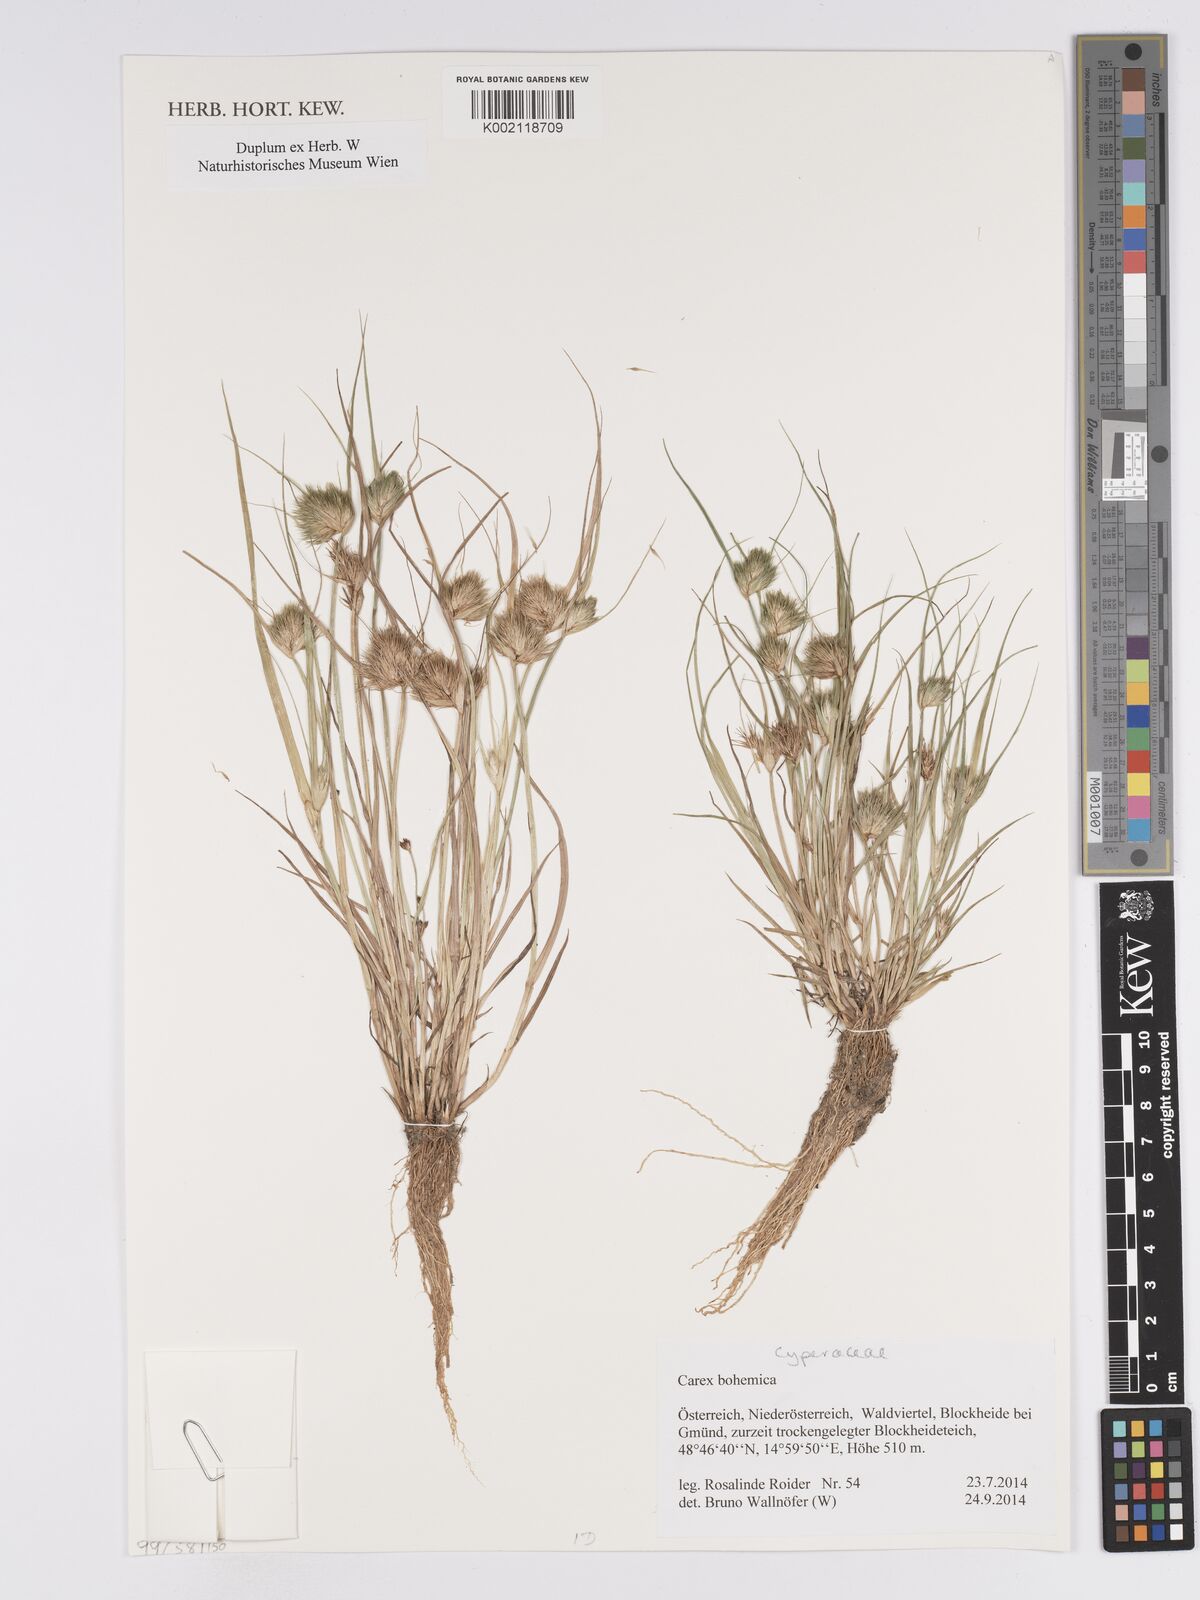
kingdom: Plantae
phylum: Tracheophyta
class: Liliopsida
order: Poales
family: Cyperaceae
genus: Carex
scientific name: Carex bohemica
